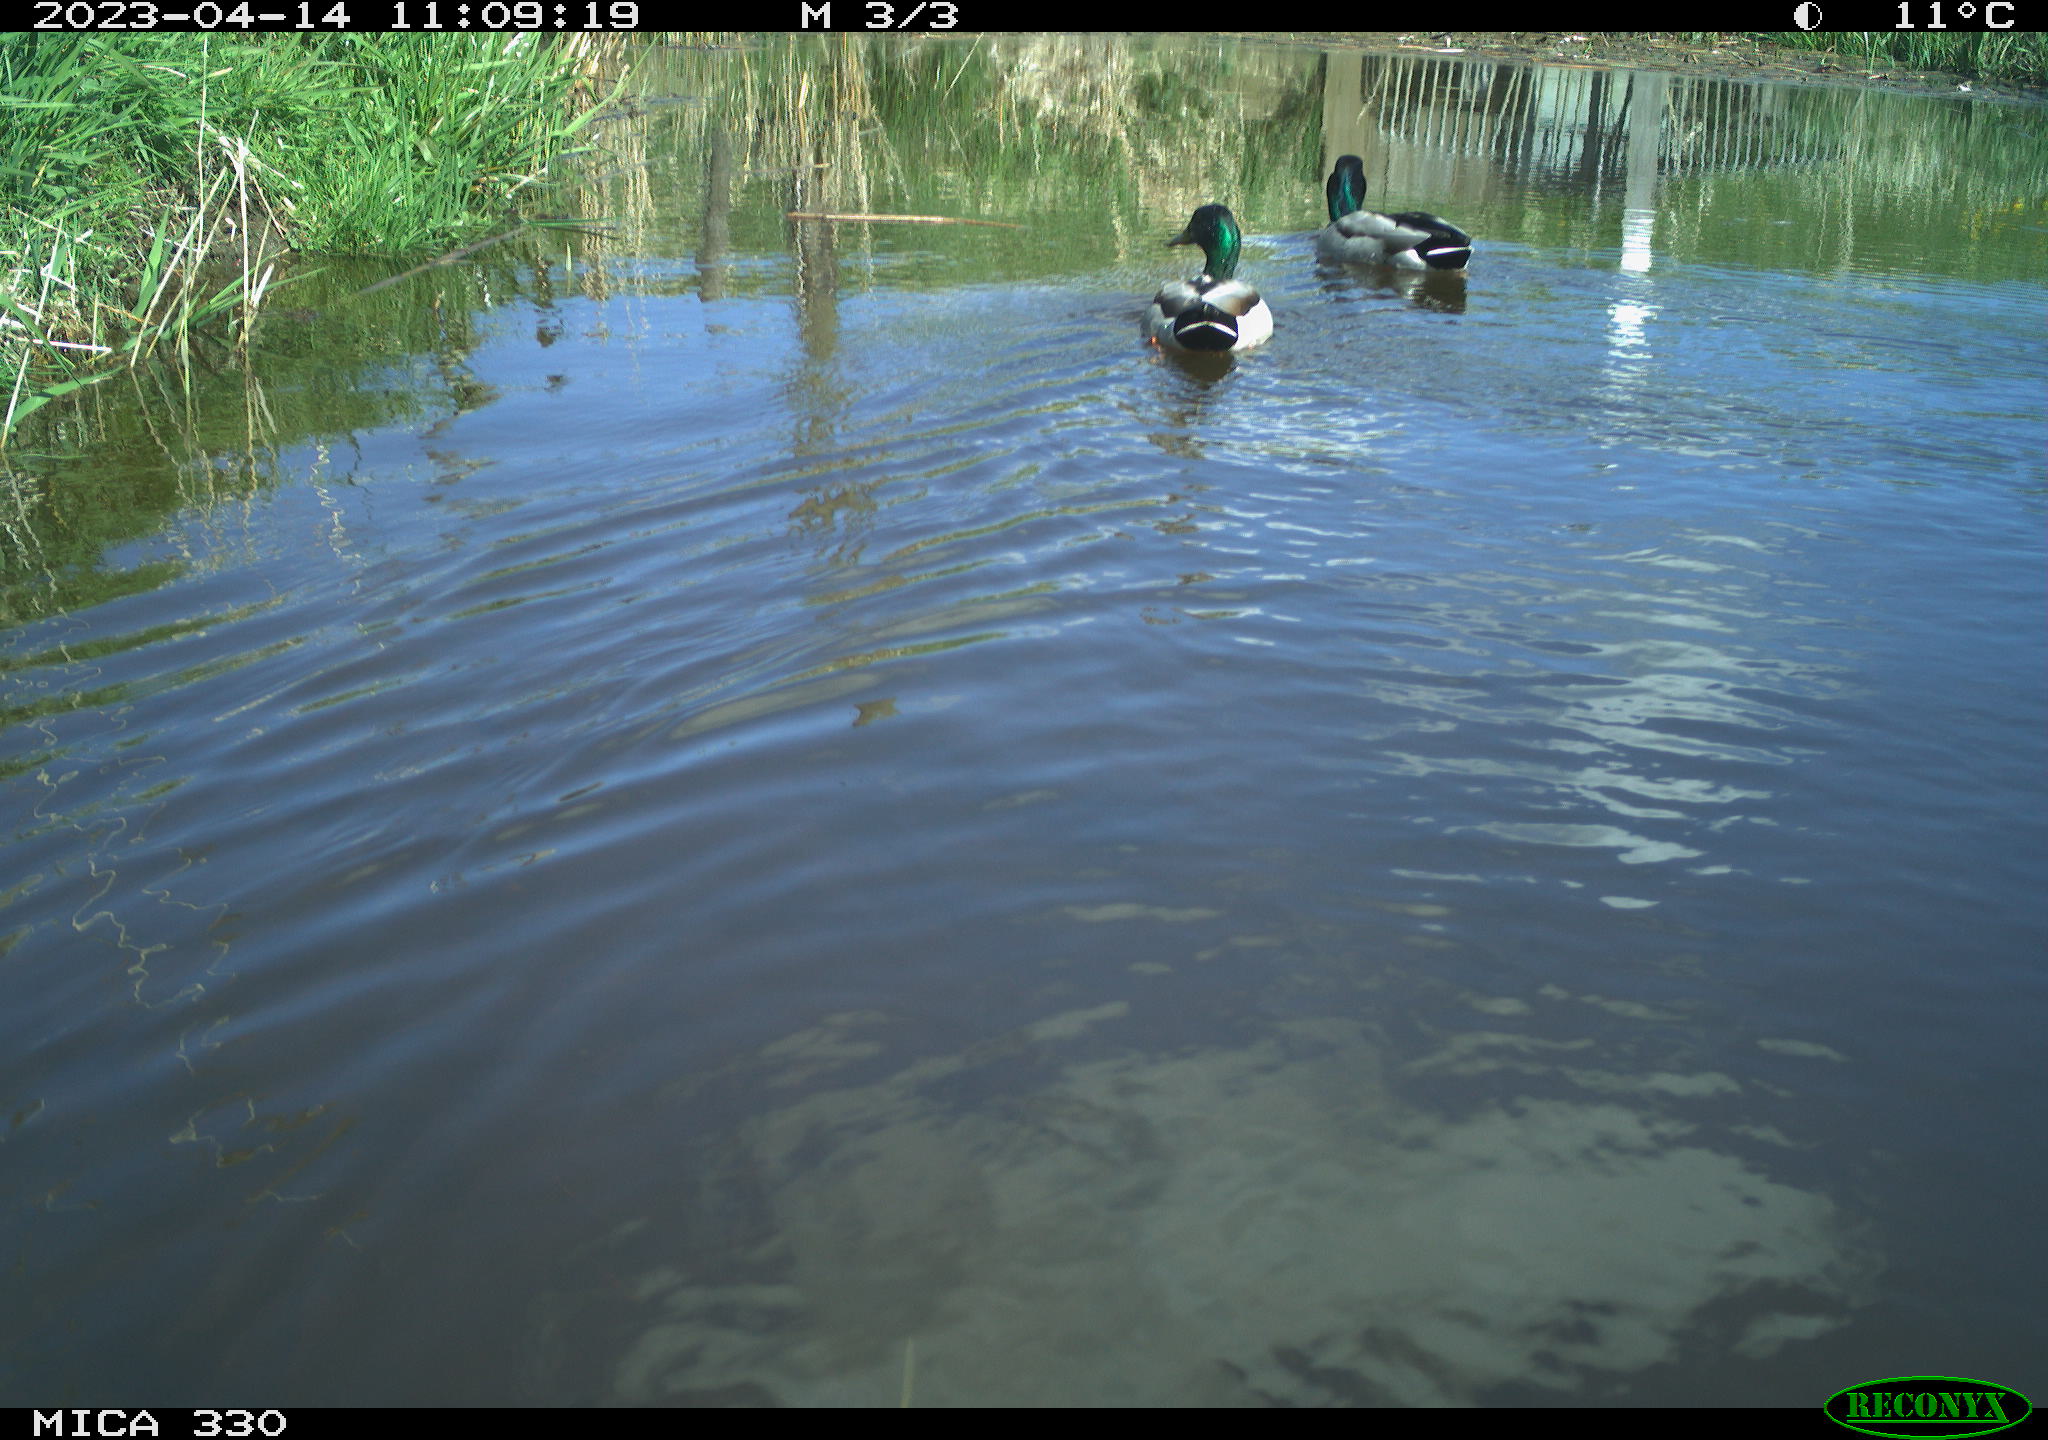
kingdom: Animalia
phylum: Chordata
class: Aves
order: Anseriformes
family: Anatidae
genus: Anas
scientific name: Anas
